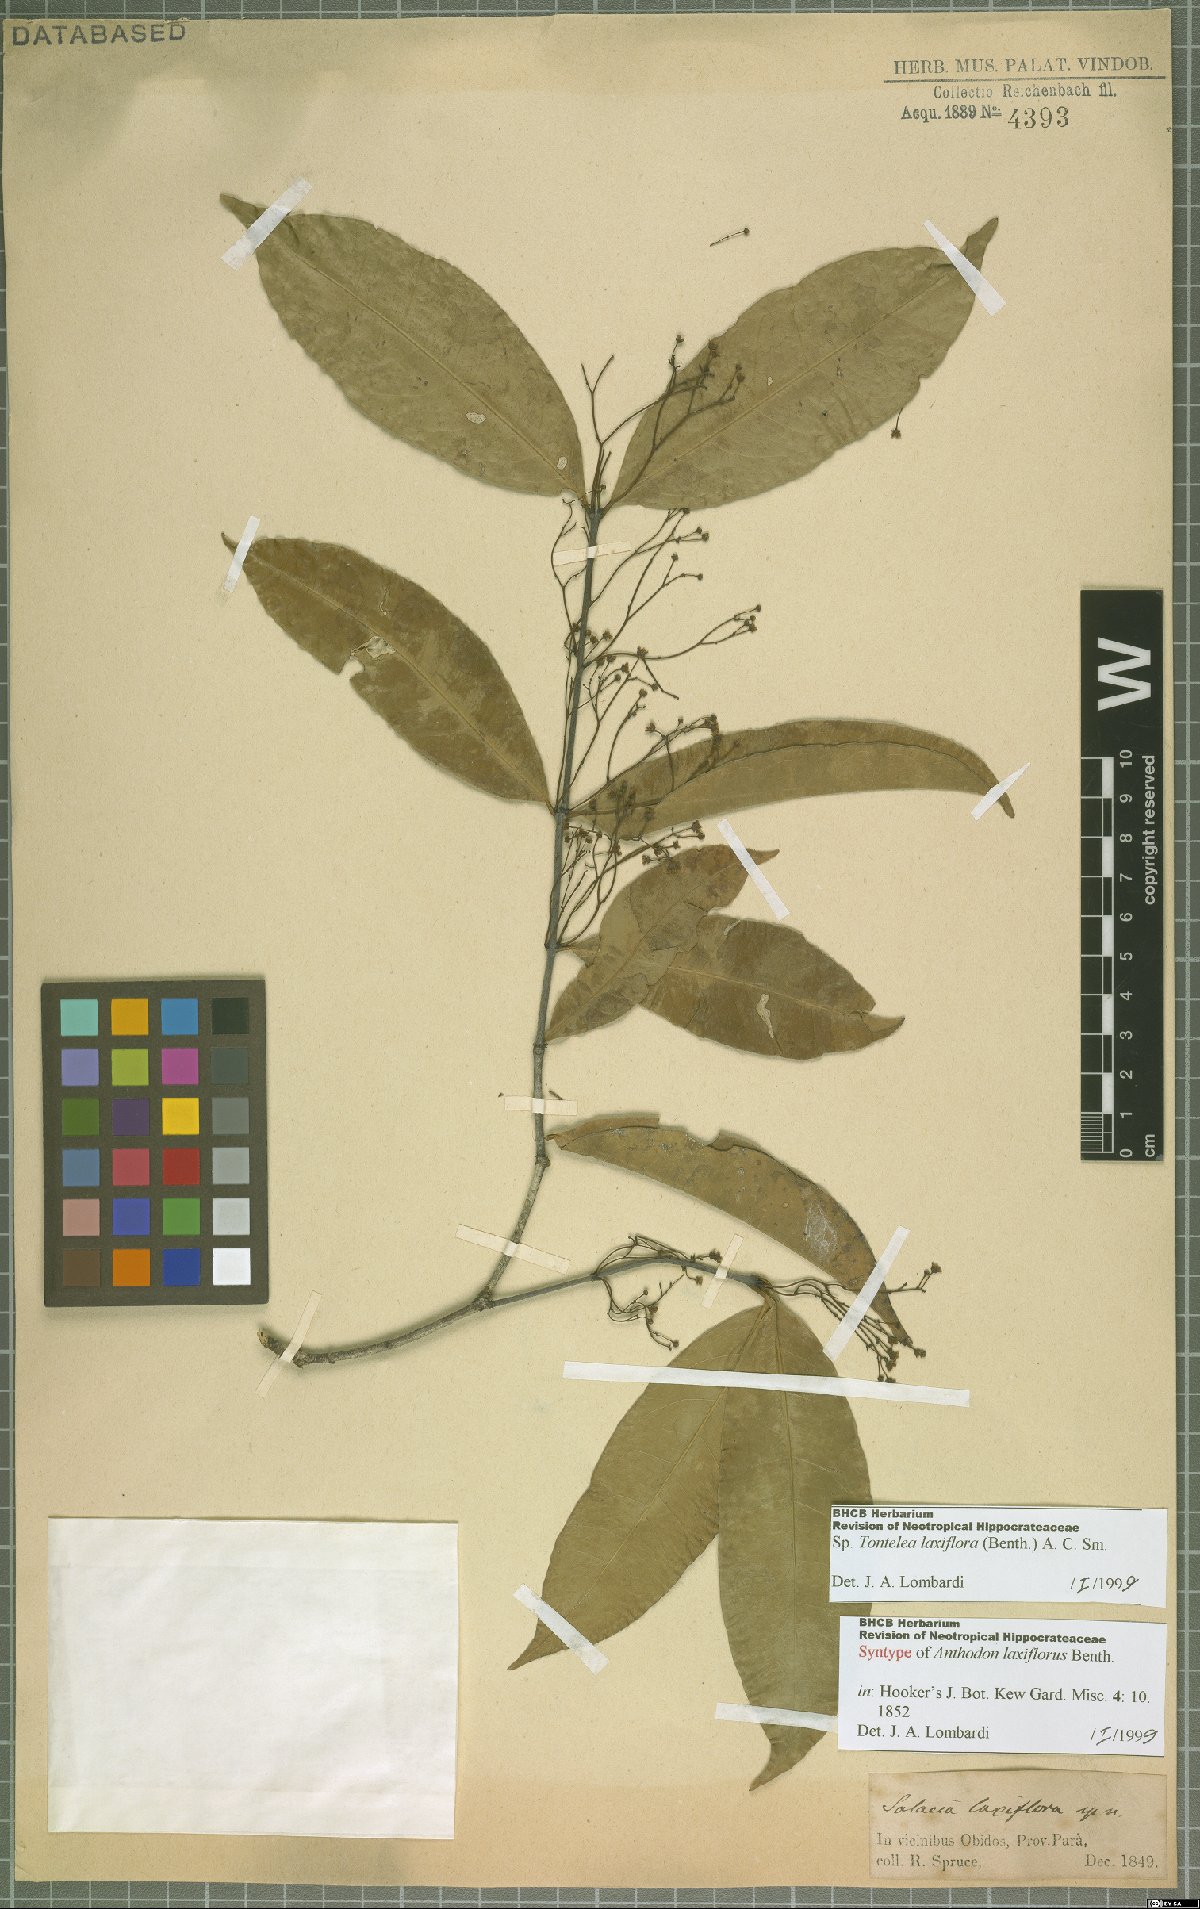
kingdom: Plantae
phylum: Tracheophyta
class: Magnoliopsida
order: Celastrales
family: Celastraceae
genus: Tontelea
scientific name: Tontelea laxiflora
